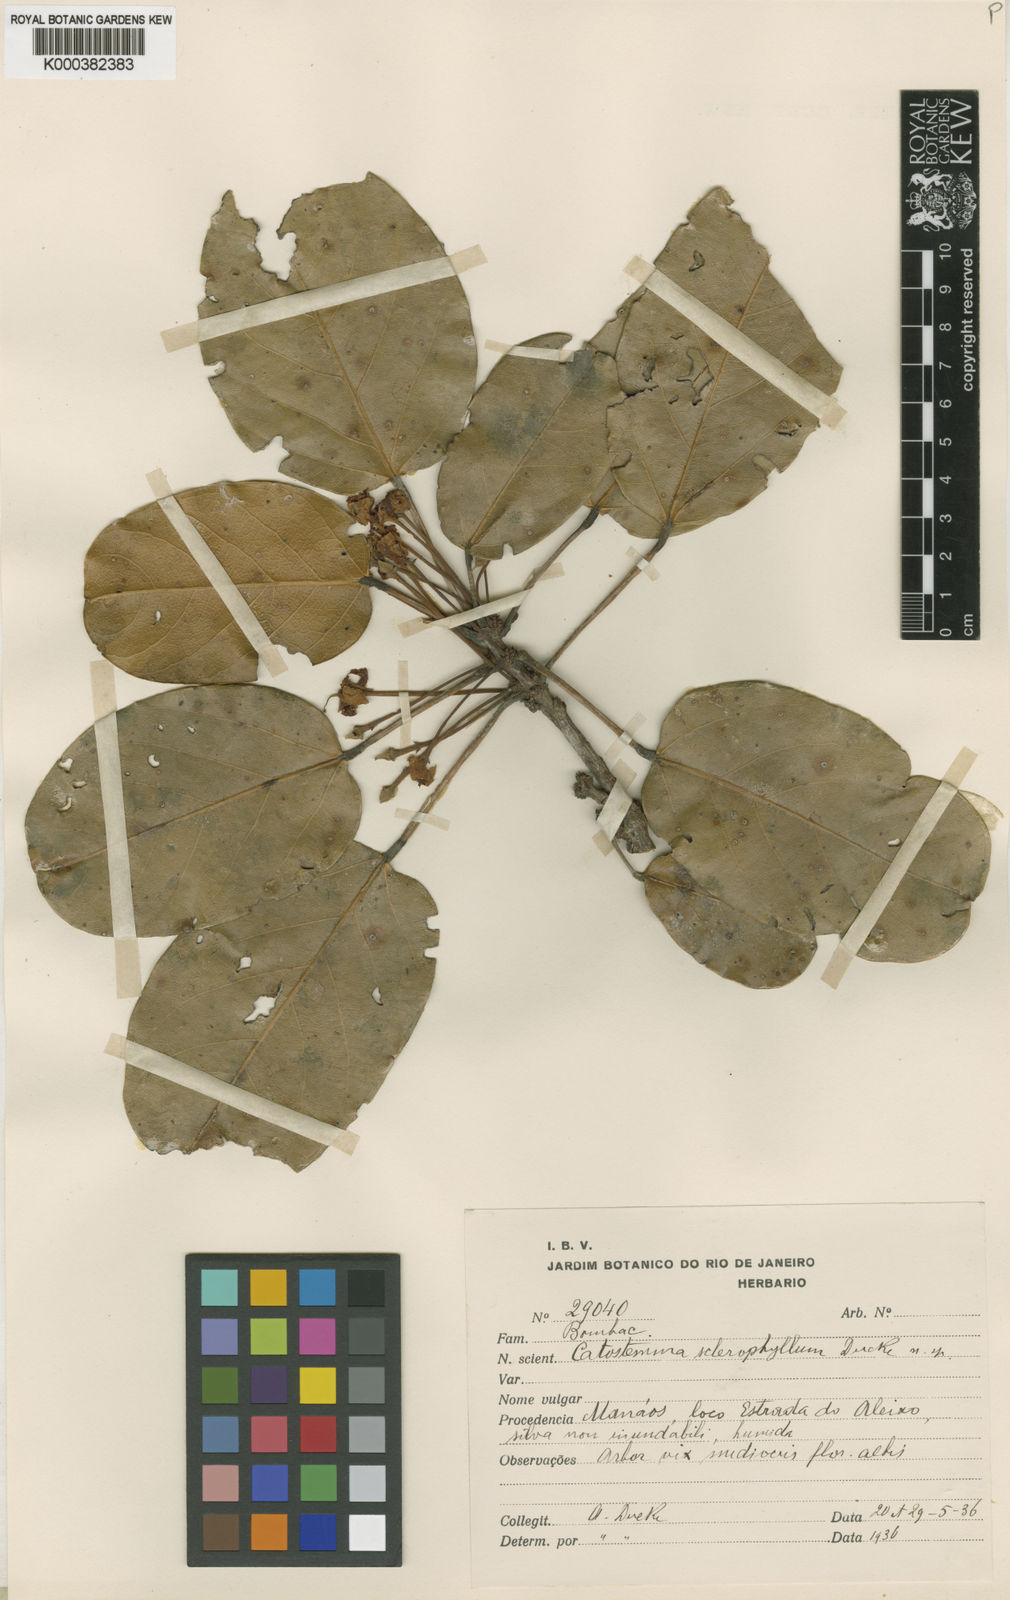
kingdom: Plantae
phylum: Tracheophyta
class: Magnoliopsida
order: Malvales
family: Malvaceae
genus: Catostemma
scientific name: Catostemma sclerophyllum
